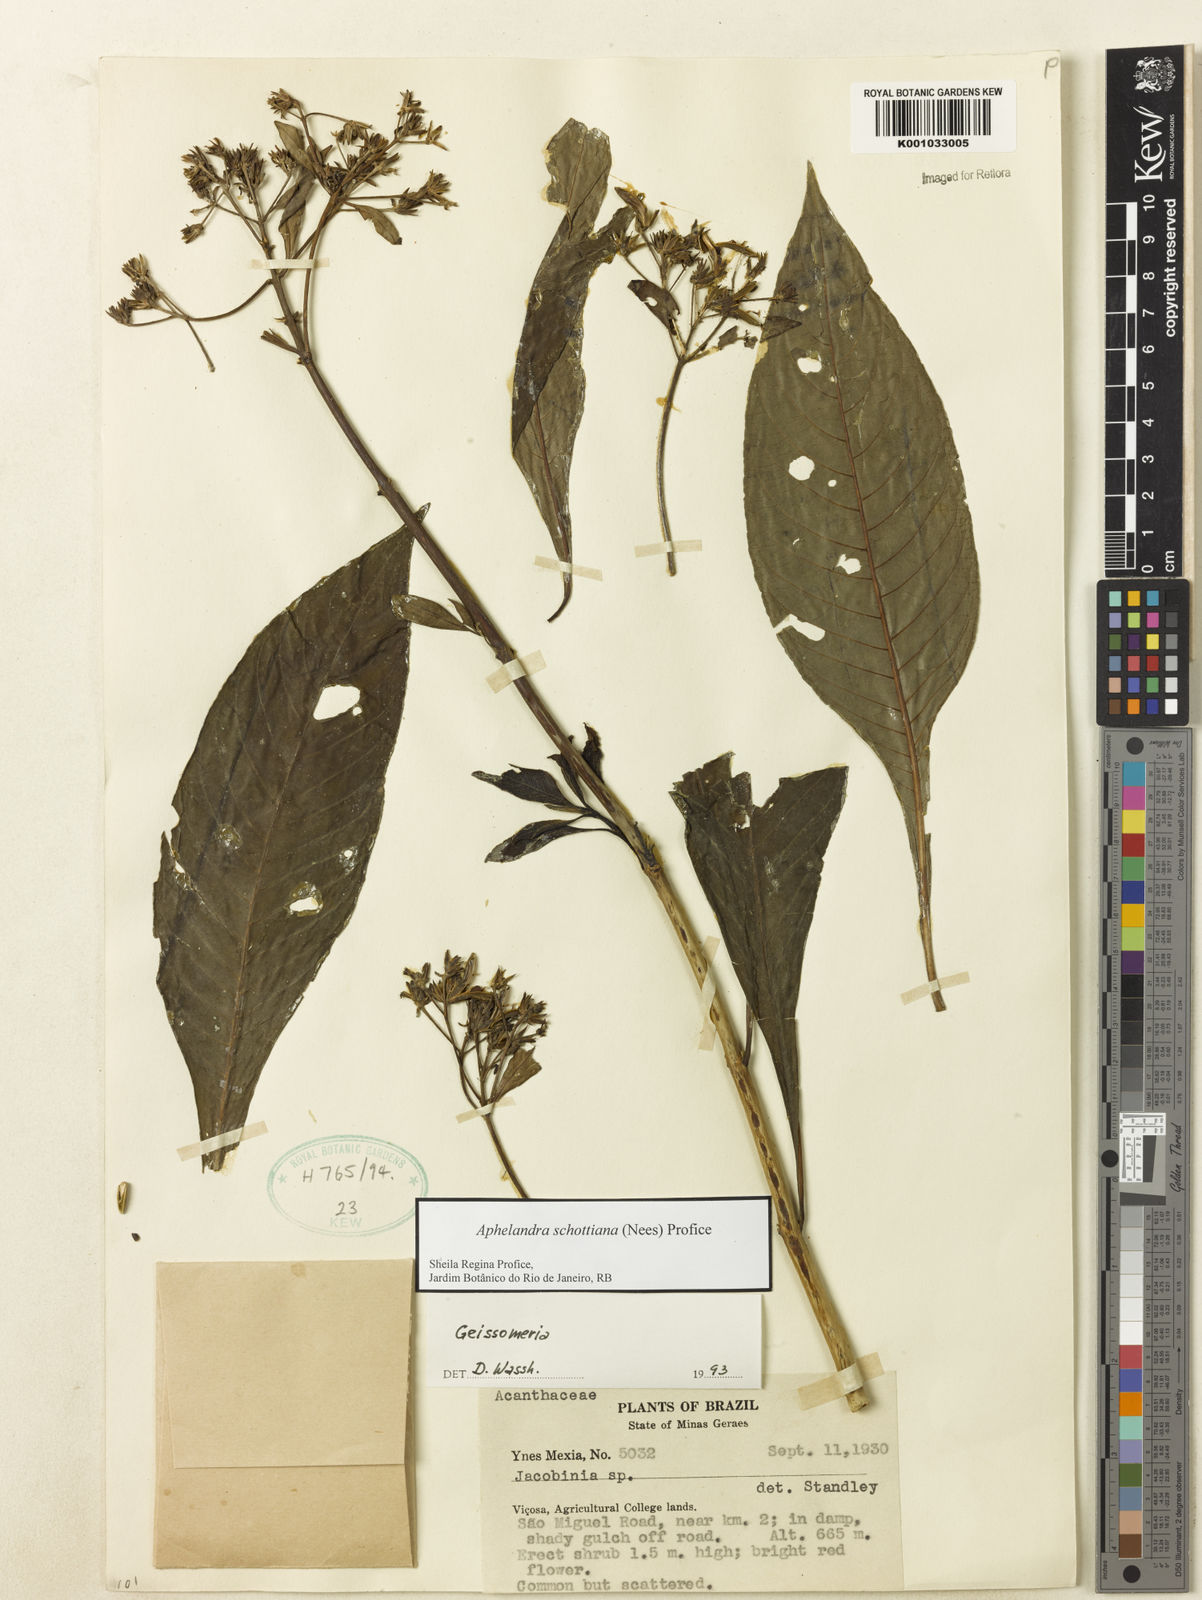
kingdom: Plantae
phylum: Tracheophyta
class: Magnoliopsida
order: Lamiales
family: Acanthaceae
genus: Aphelandra
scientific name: Aphelandra schottiana
